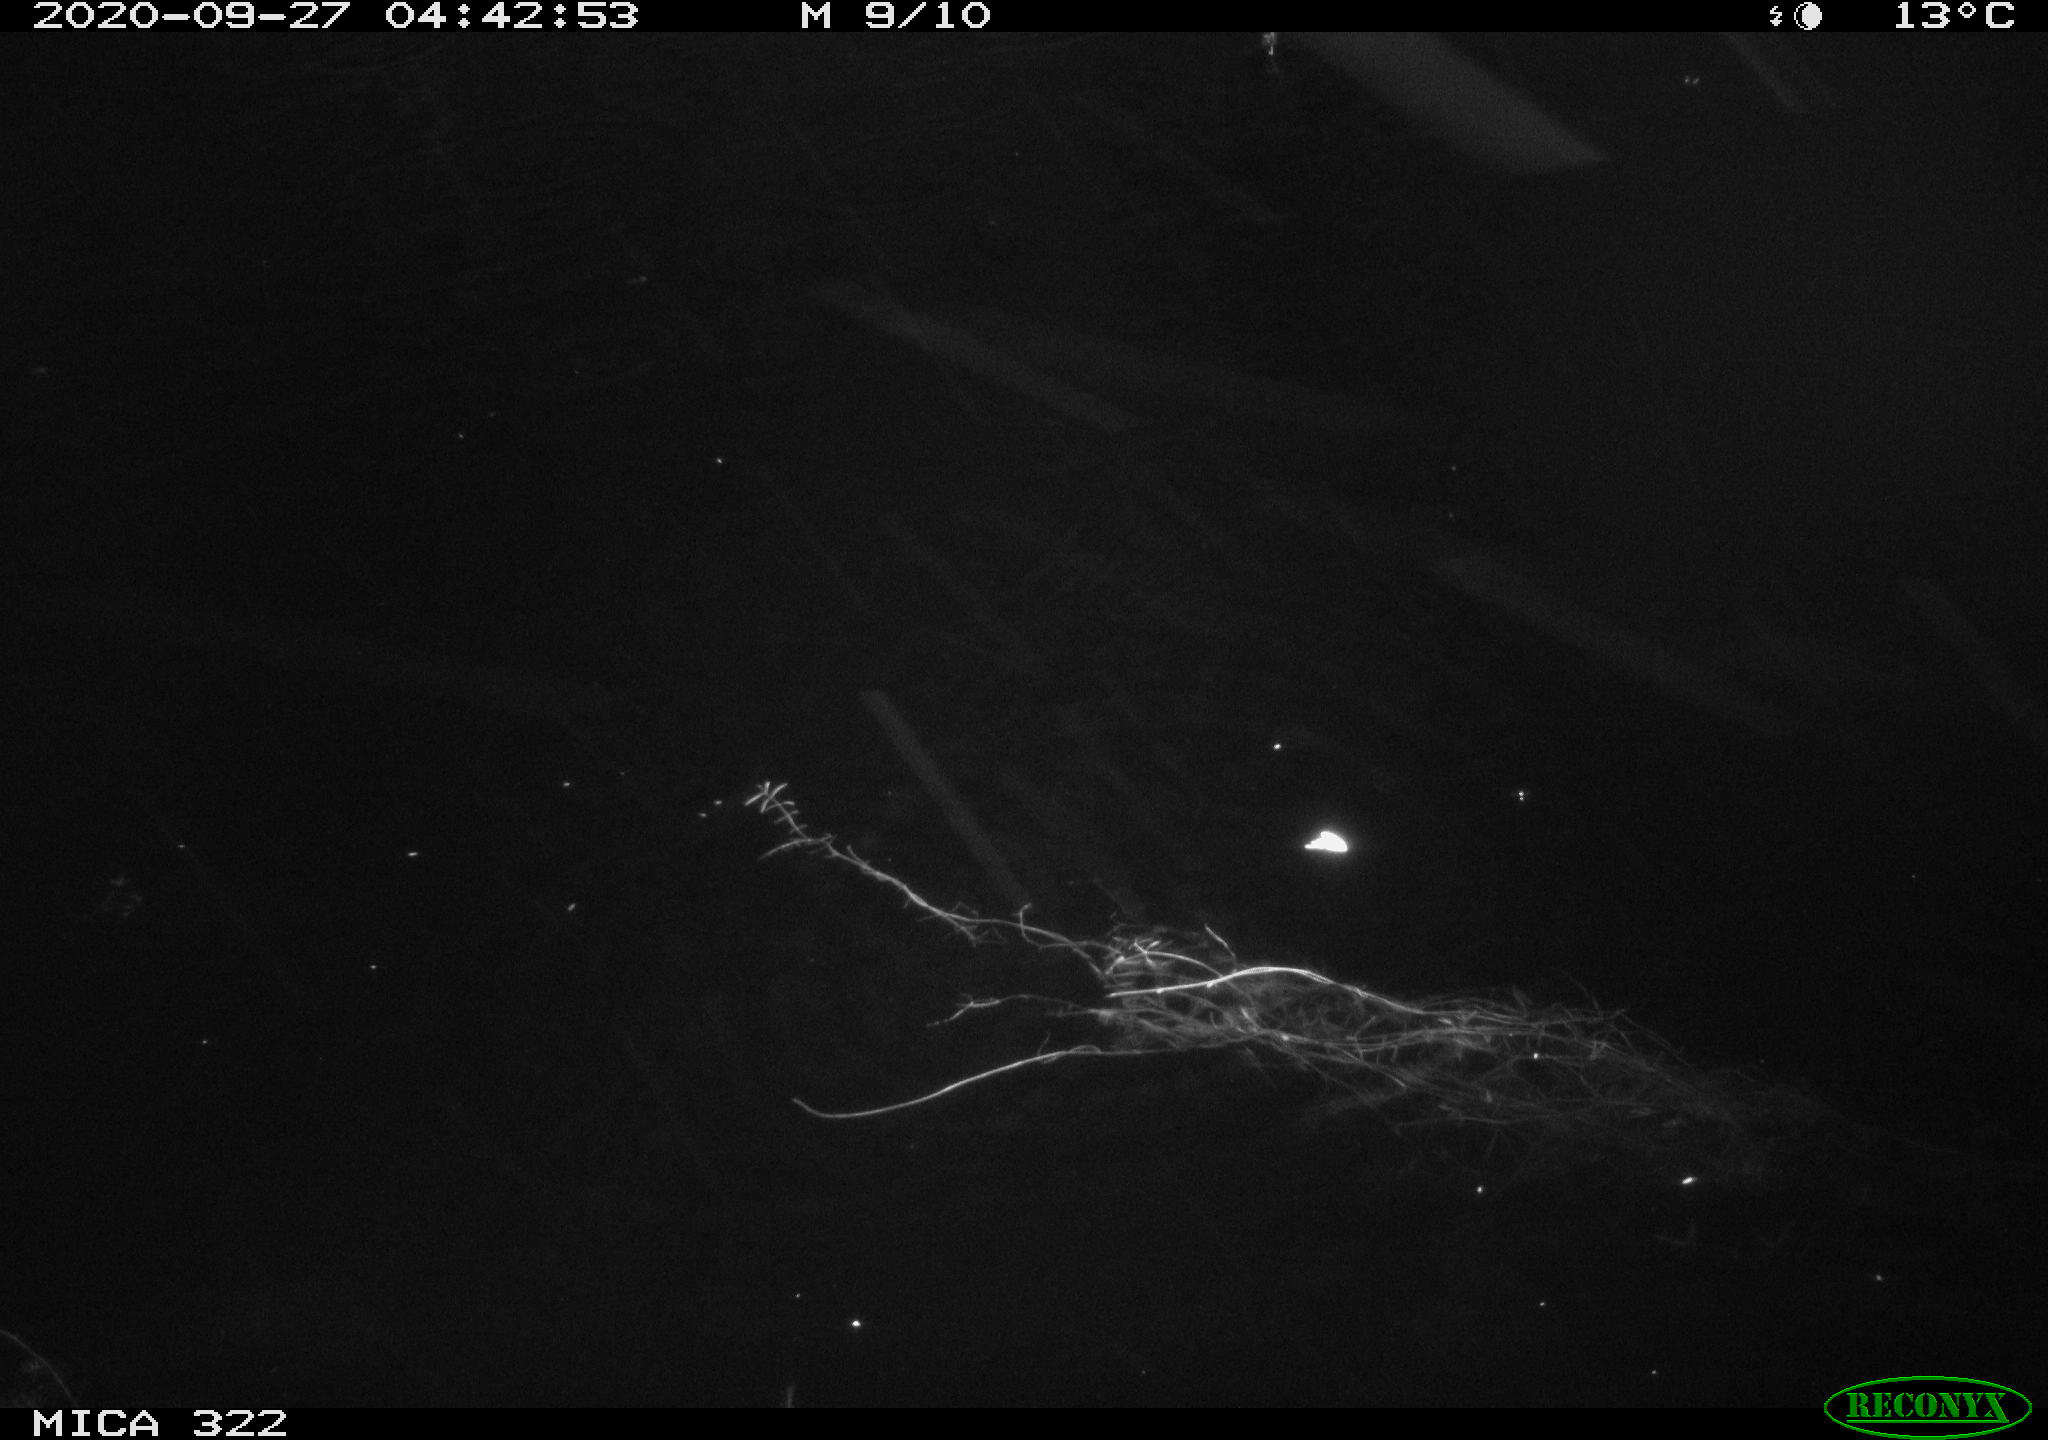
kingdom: Animalia
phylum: Chordata
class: Mammalia
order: Rodentia
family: Muridae
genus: Rattus
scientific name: Rattus norvegicus
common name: Brown rat
